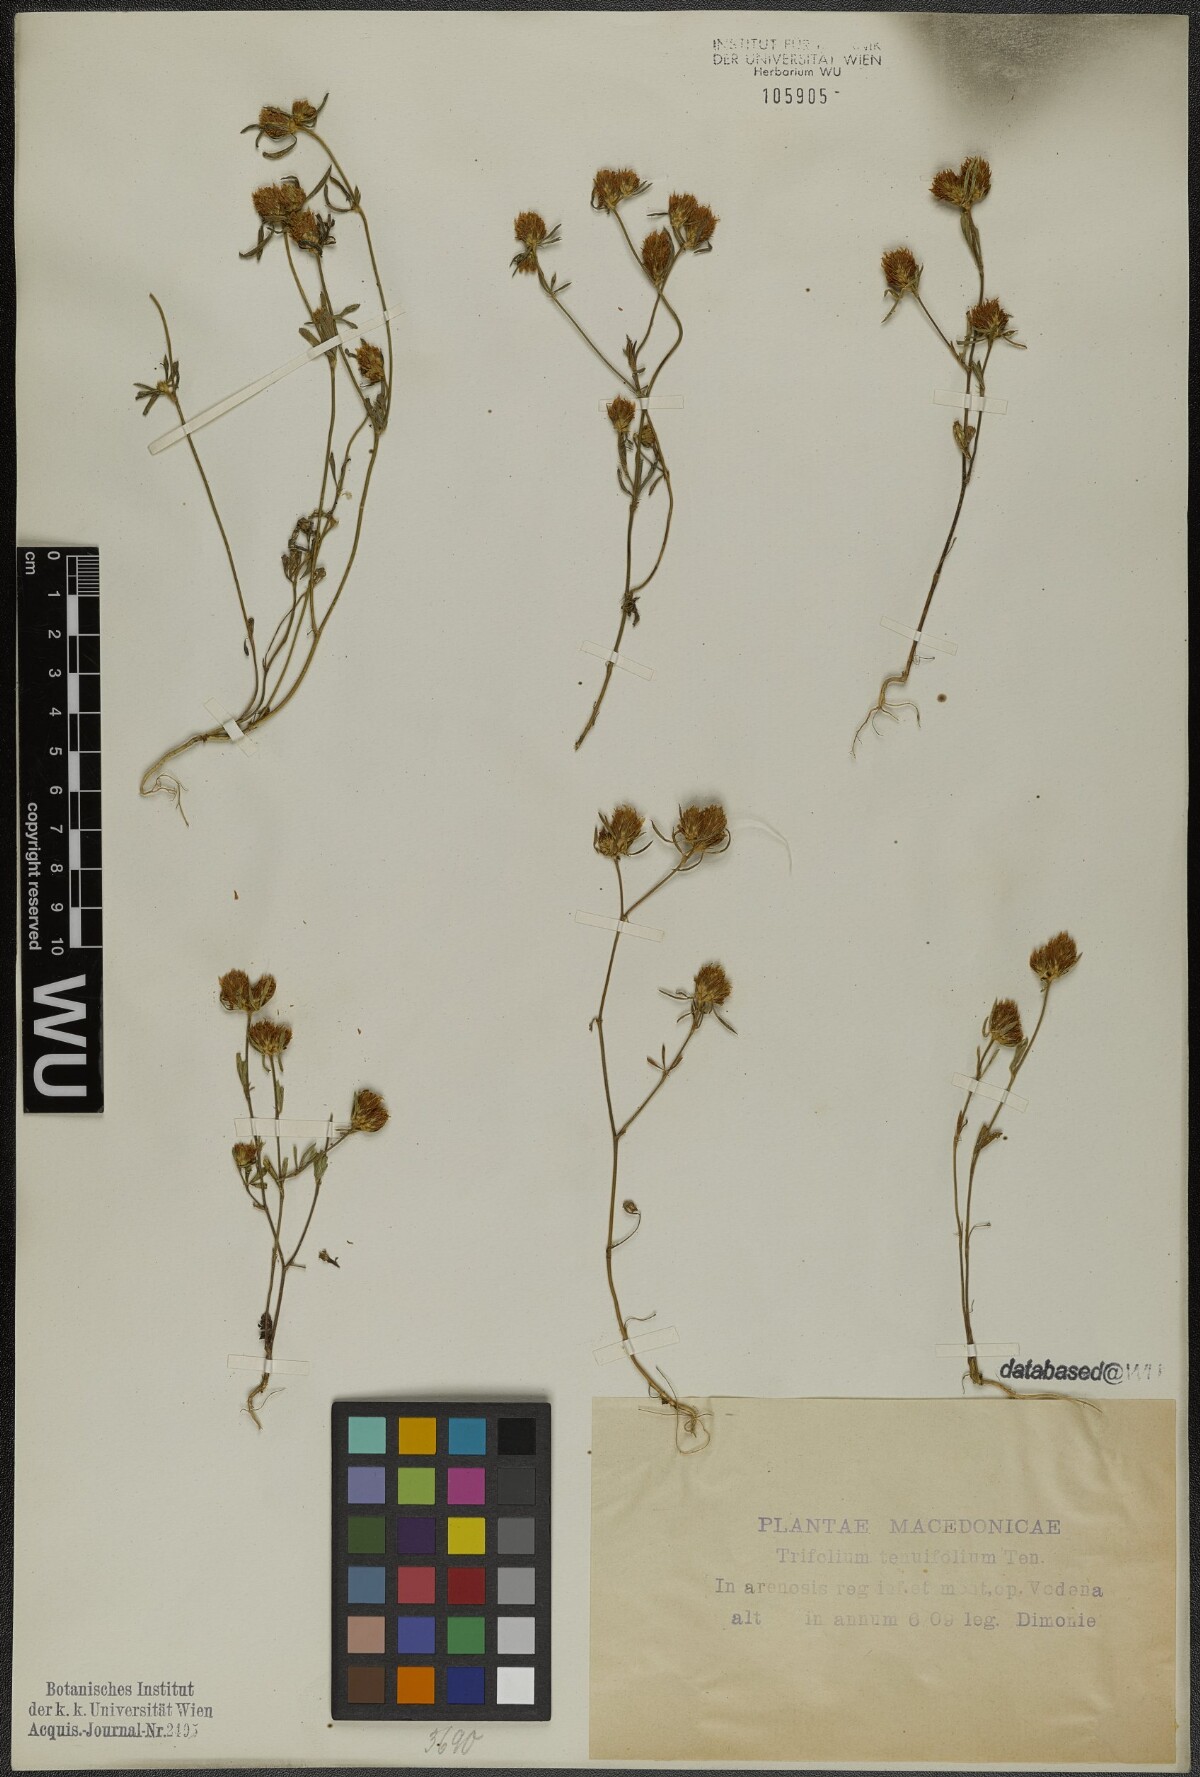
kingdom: Plantae
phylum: Tracheophyta
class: Magnoliopsida
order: Fabales
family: Fabaceae
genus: Trifolium
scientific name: Trifolium tenuifolium
